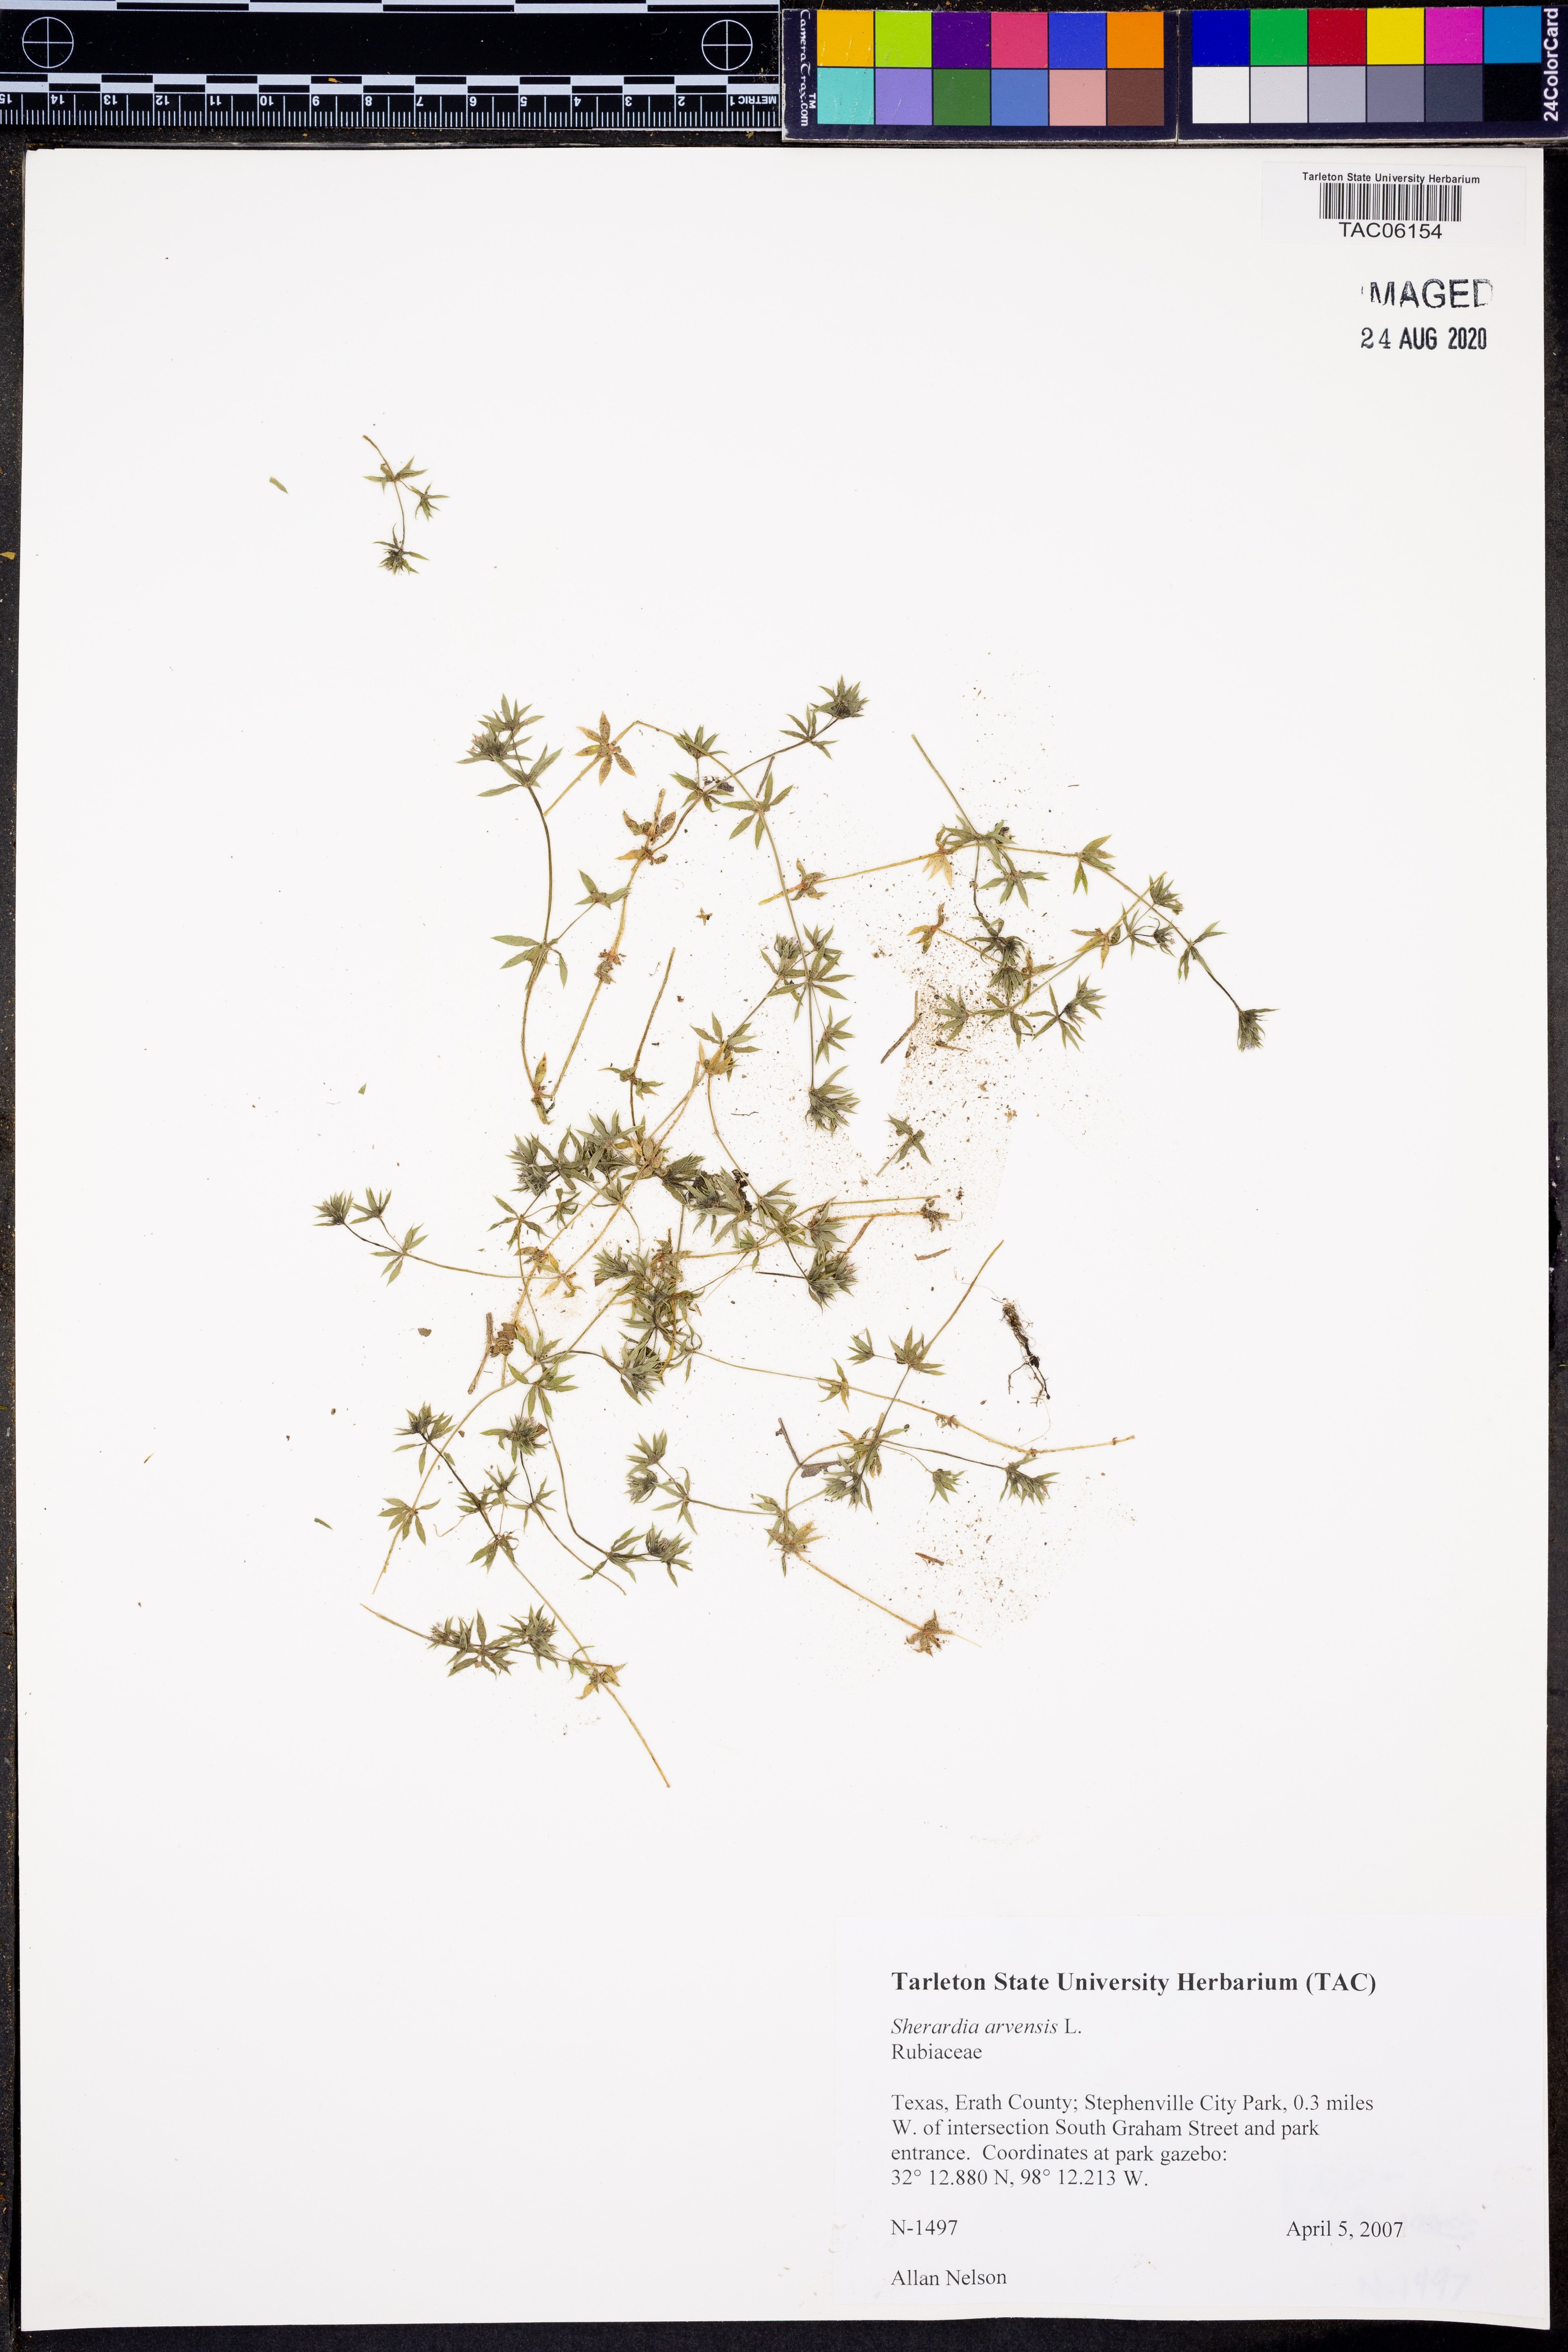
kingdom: Plantae
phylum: Tracheophyta
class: Magnoliopsida
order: Gentianales
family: Rubiaceae
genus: Sherardia
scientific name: Sherardia arvensis
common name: Field madder
